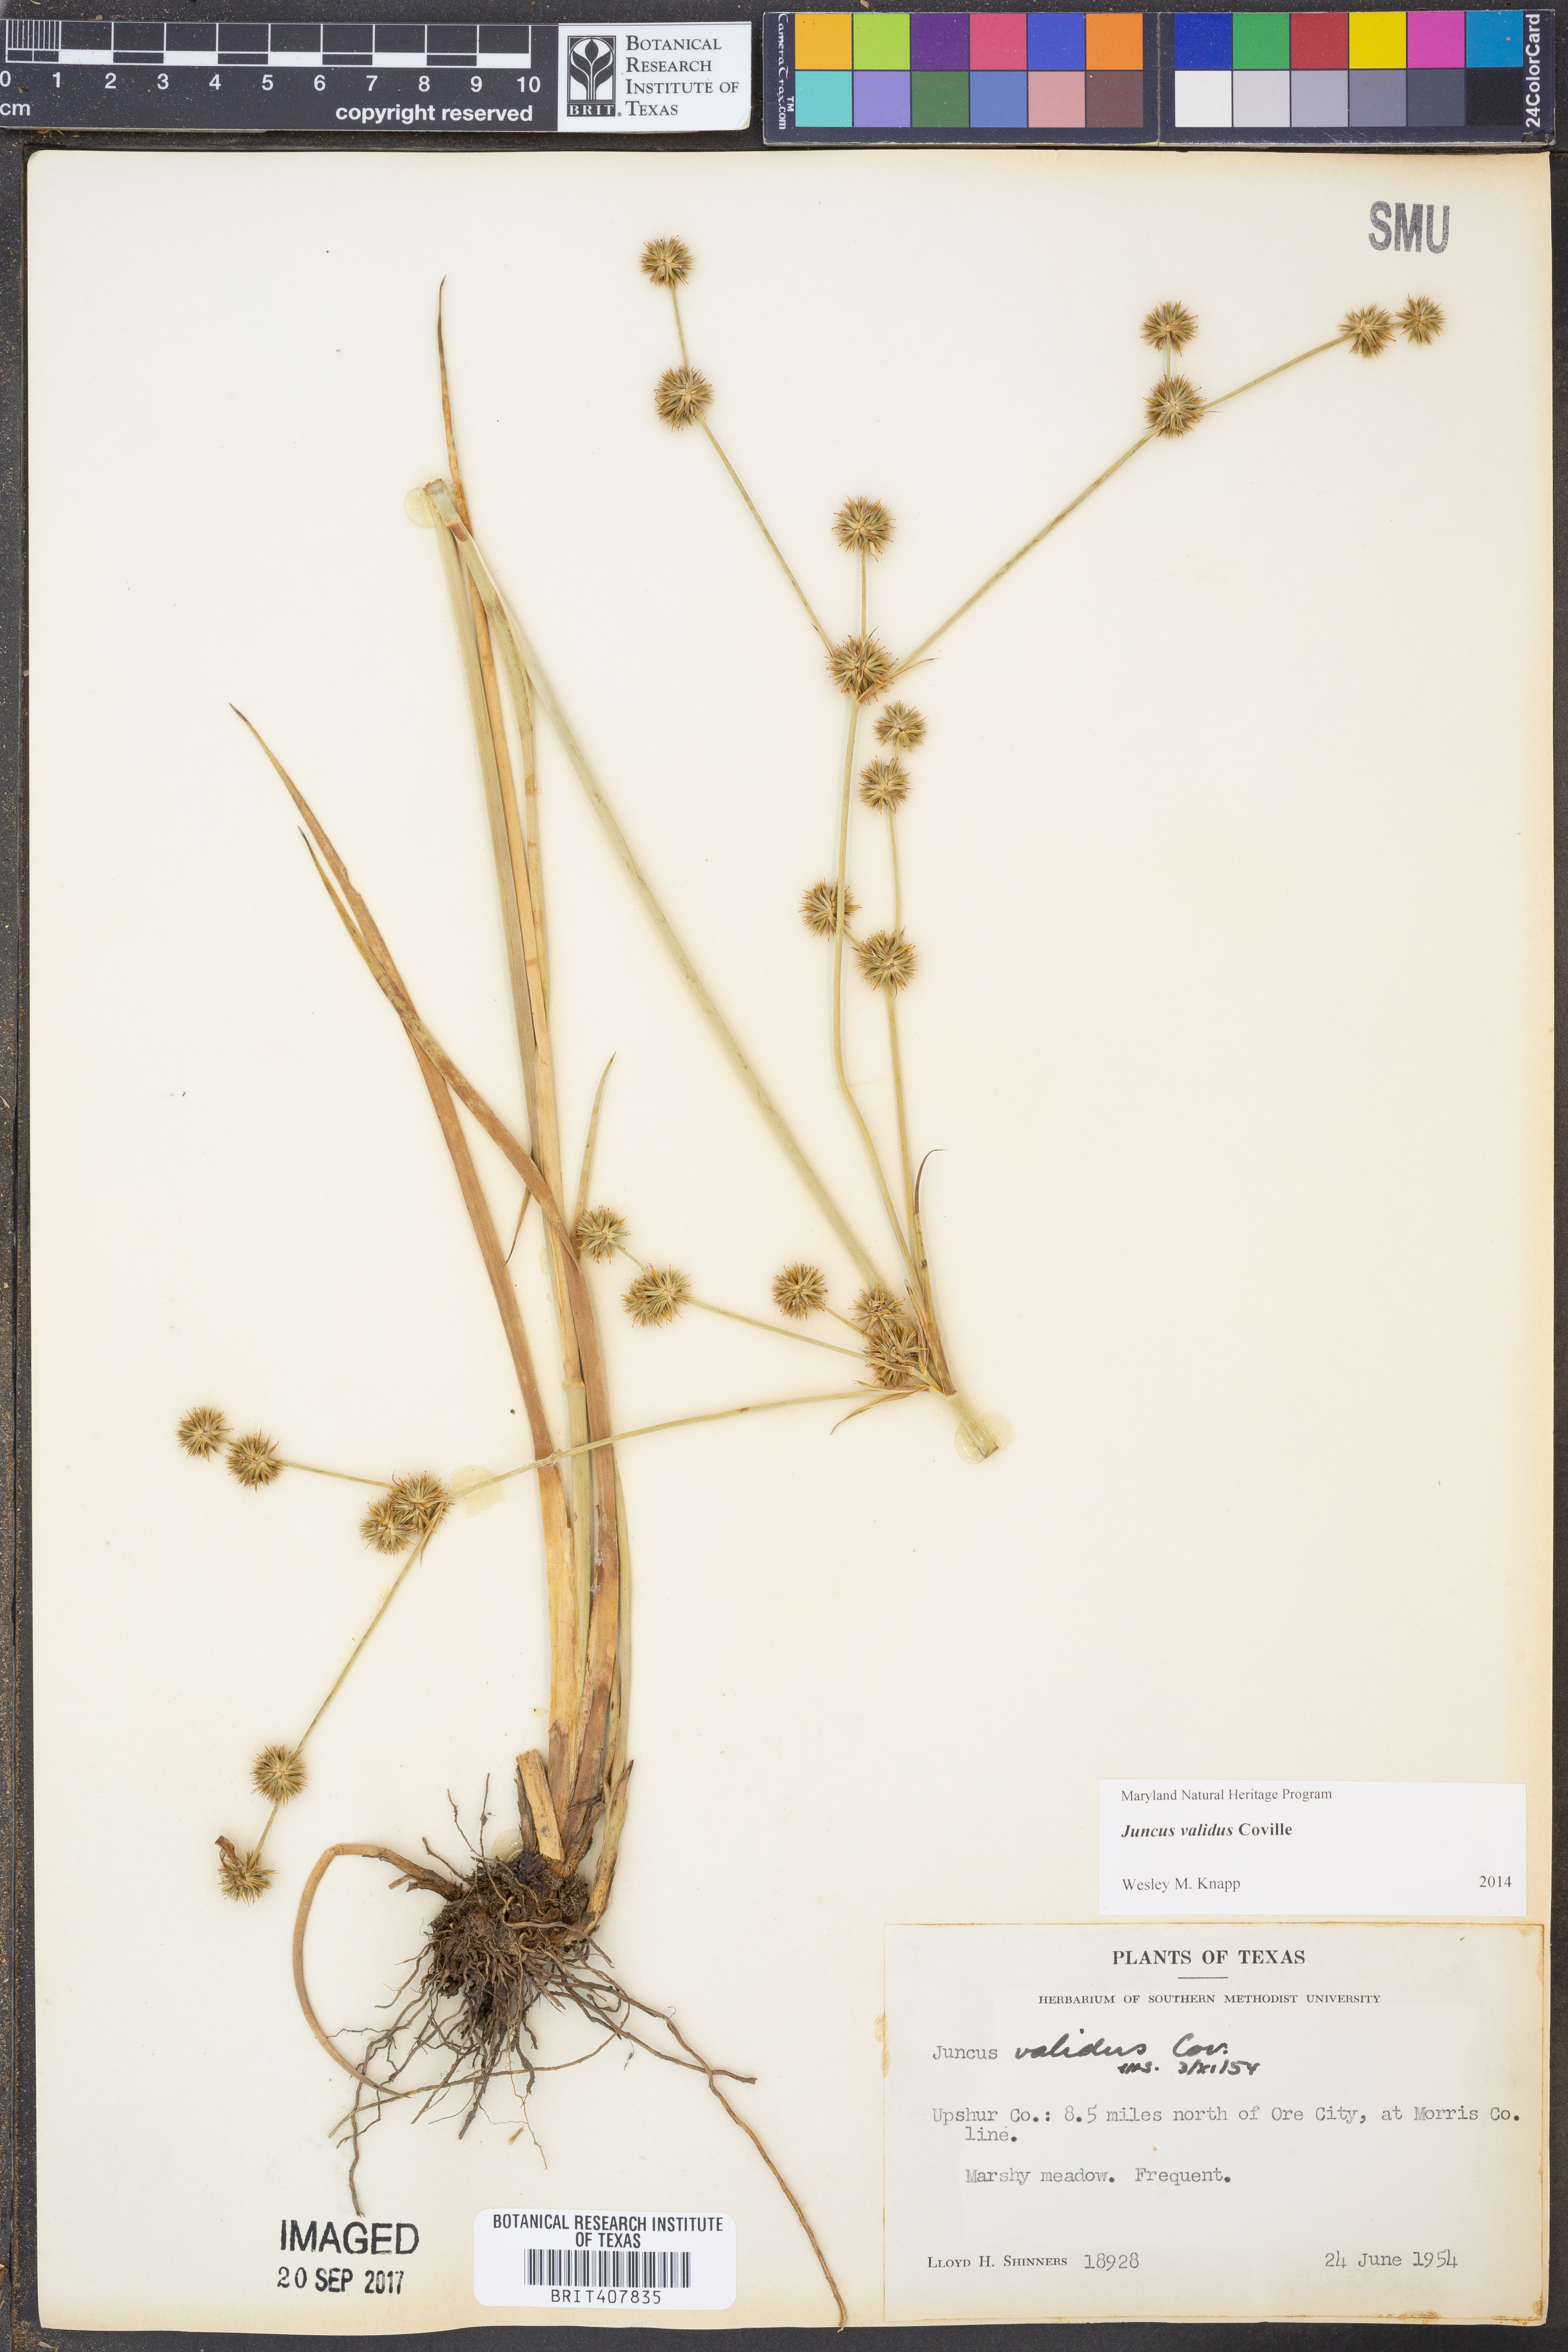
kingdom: Plantae
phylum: Tracheophyta
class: Liliopsida
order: Poales
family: Juncaceae
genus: Juncus
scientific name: Juncus validus
